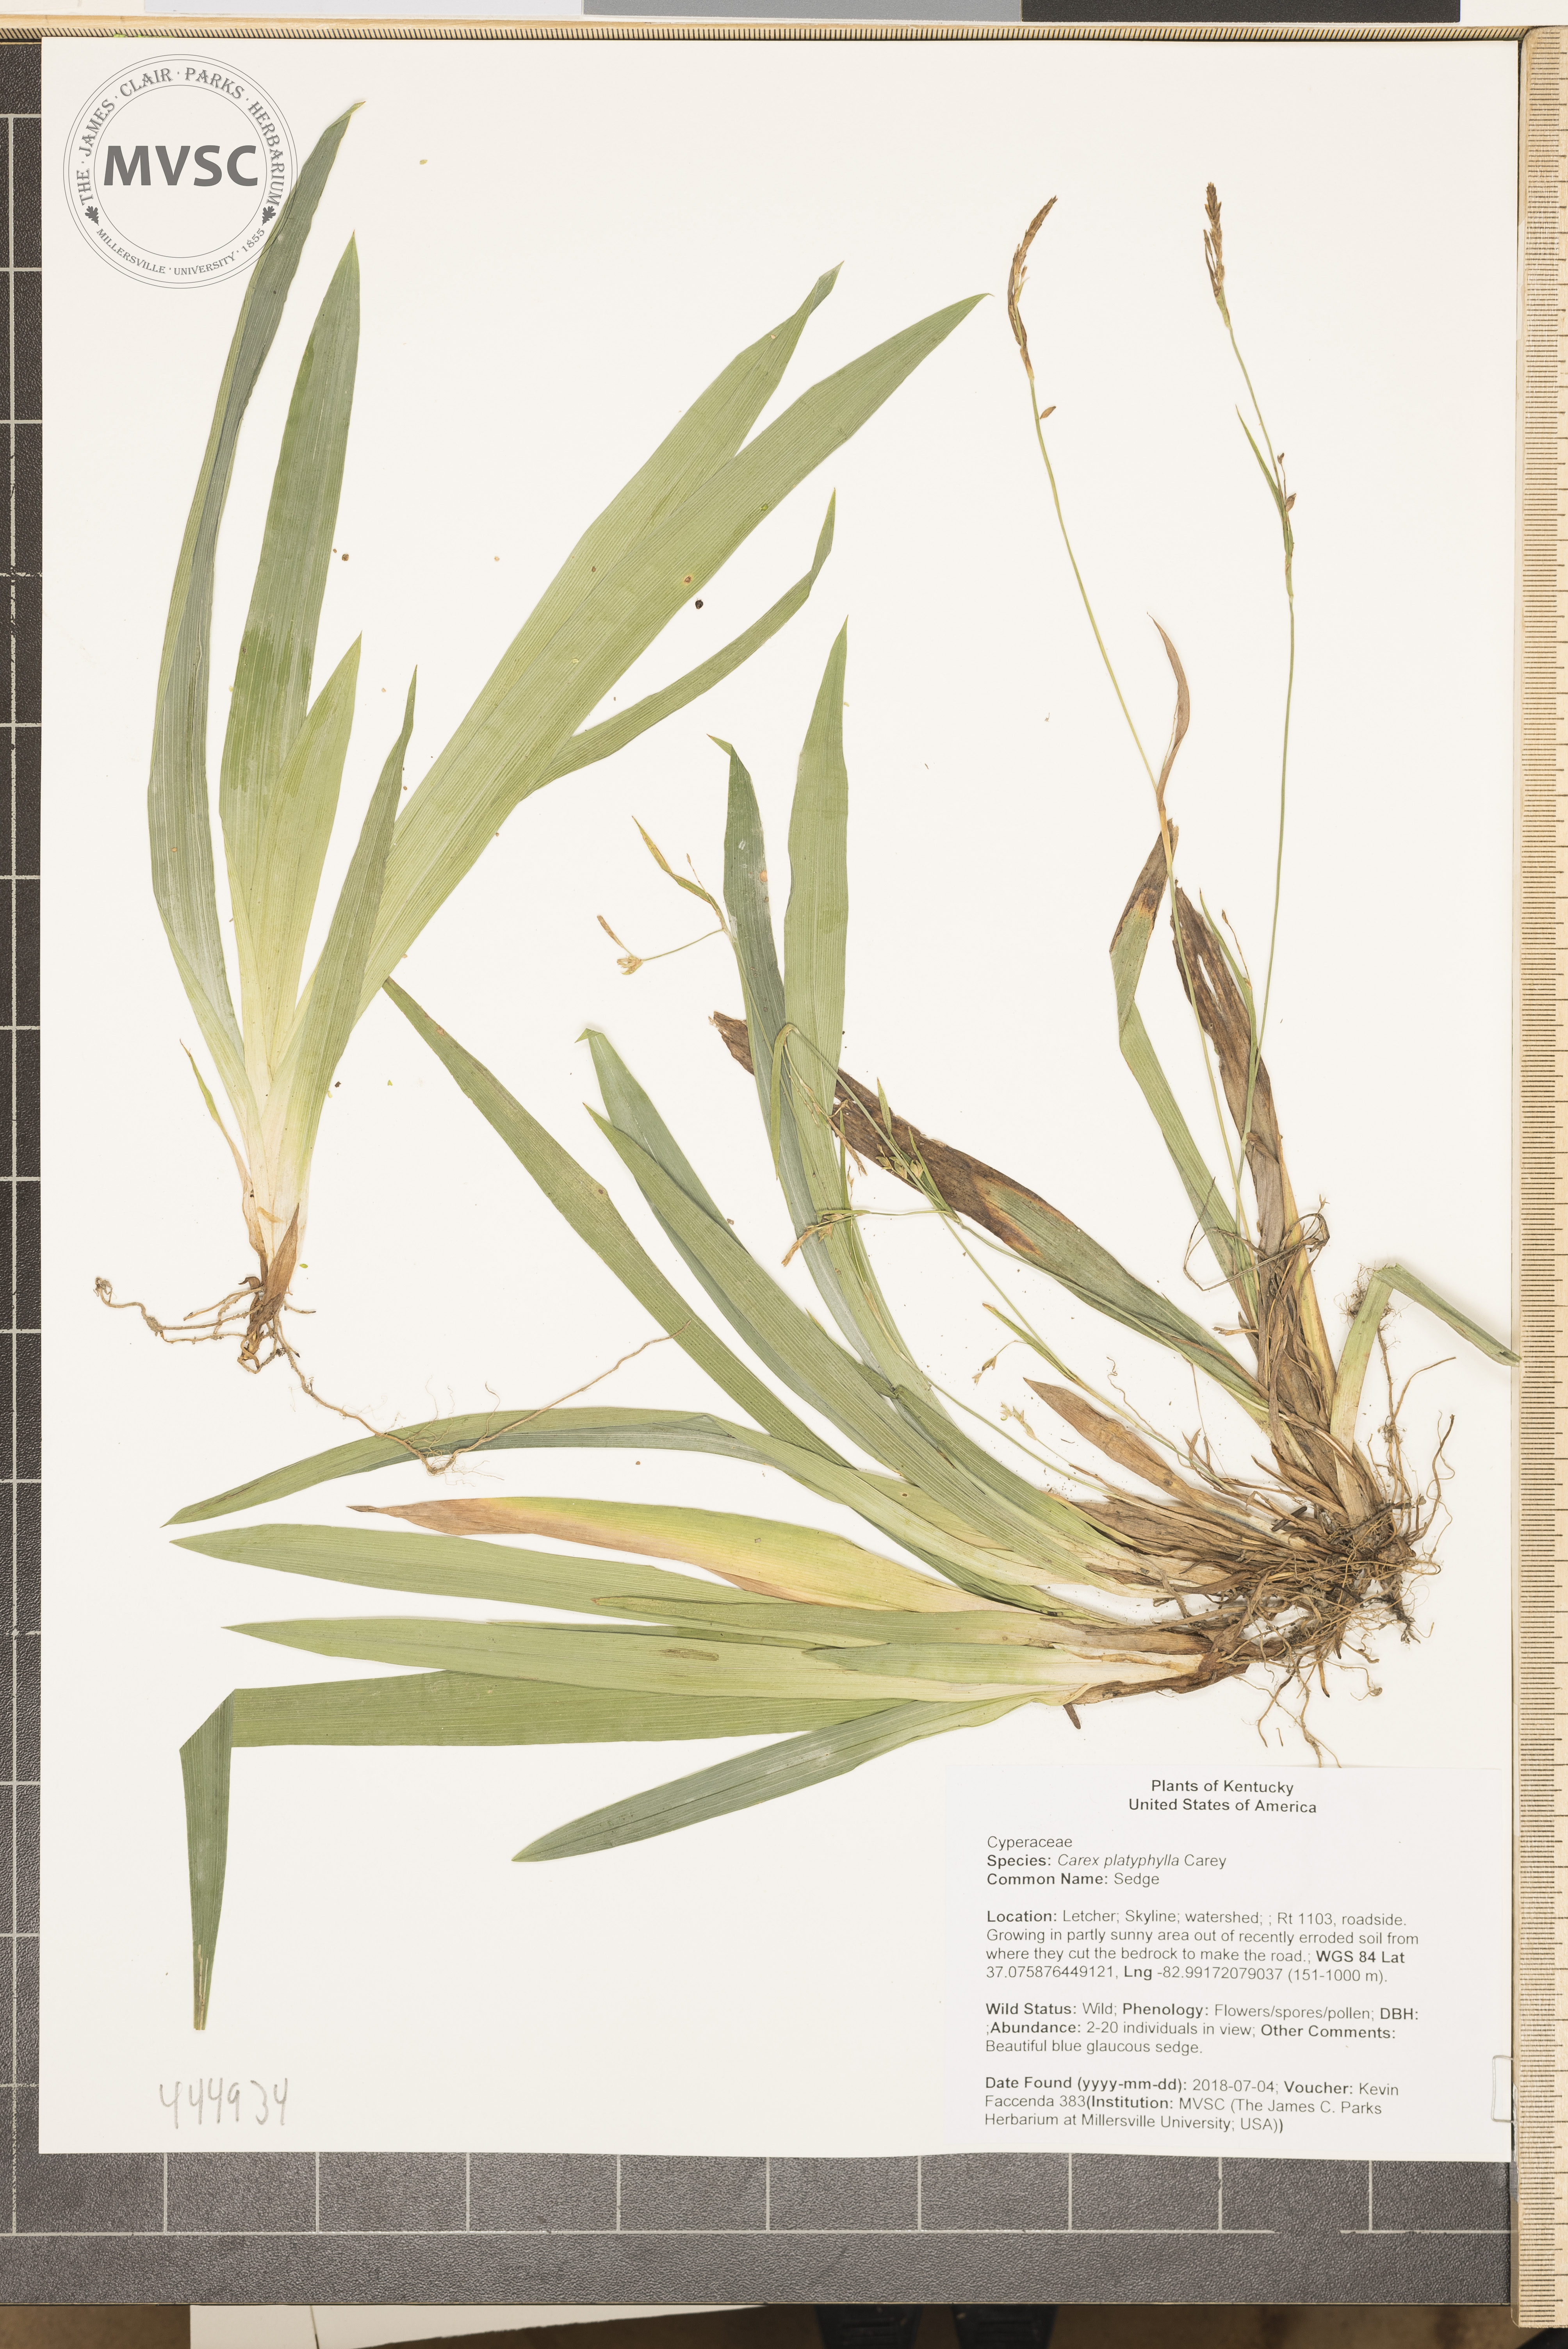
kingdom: Plantae
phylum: Tracheophyta
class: Liliopsida
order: Poales
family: Cyperaceae
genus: Carex
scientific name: Carex platyphylla
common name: Sedge
